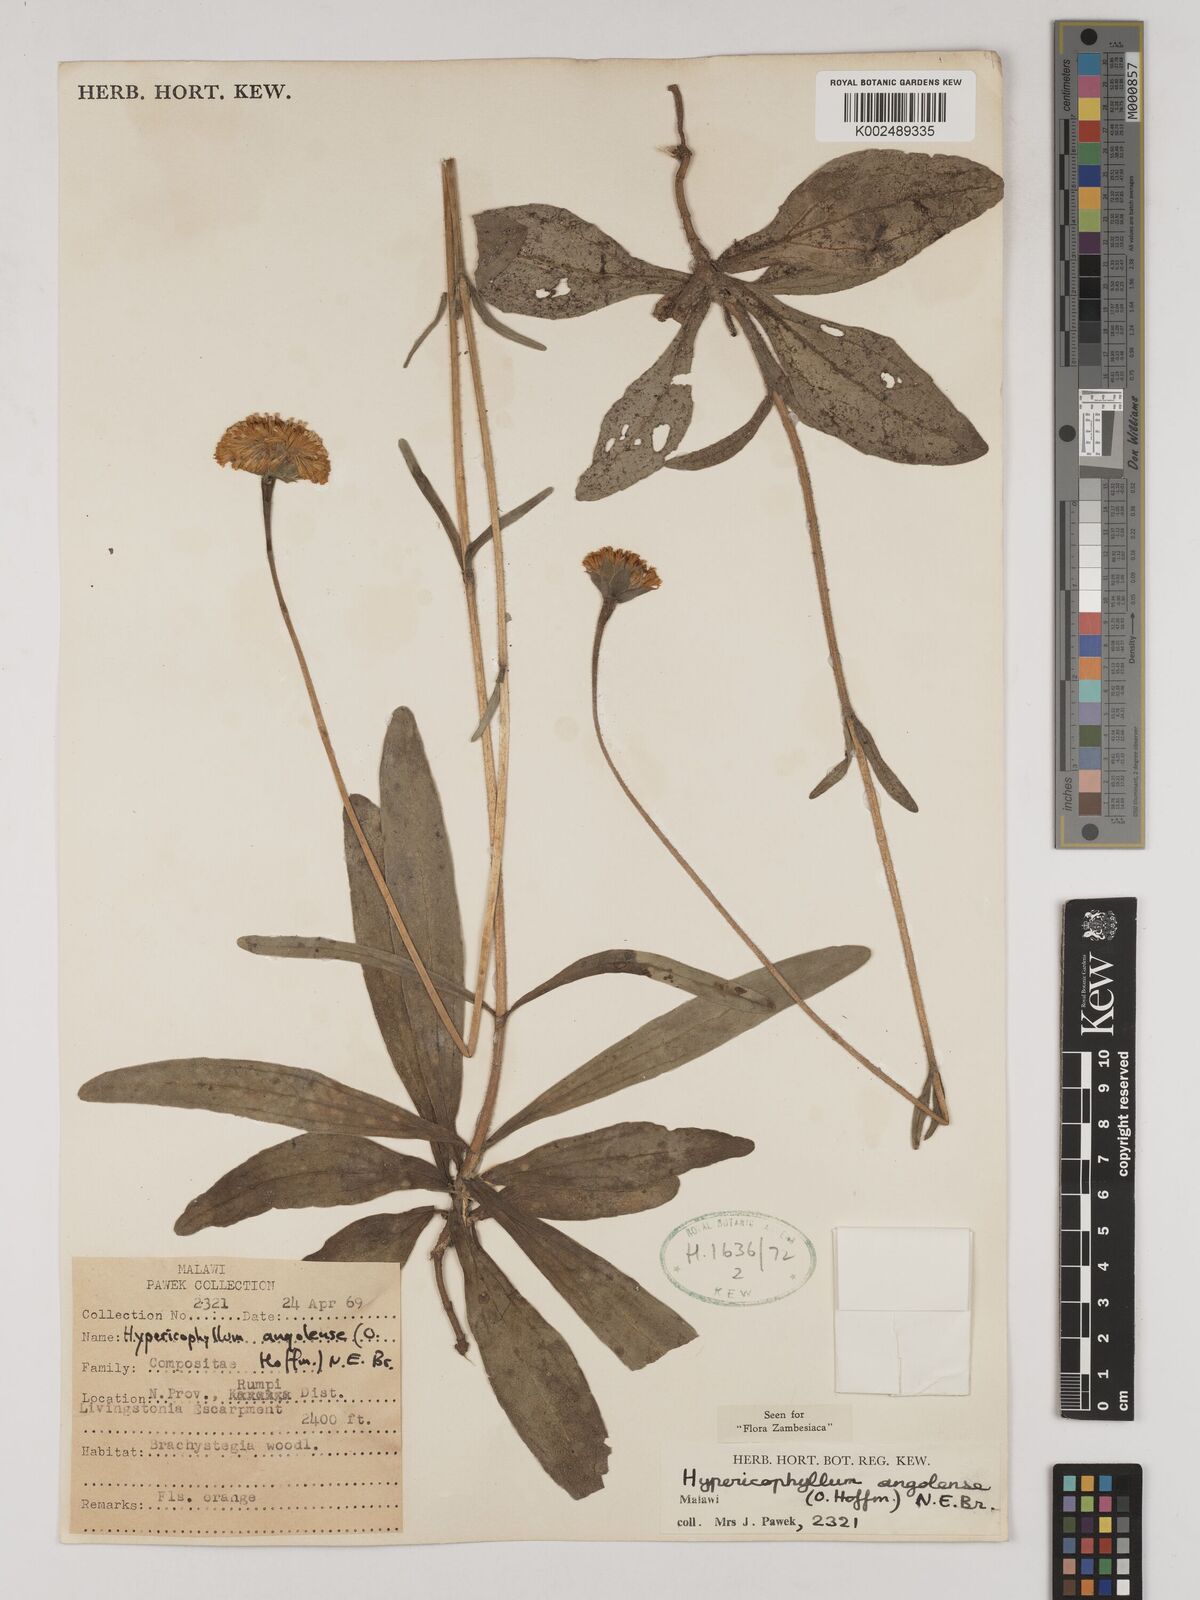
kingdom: Plantae
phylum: Tracheophyta
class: Magnoliopsida
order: Asterales
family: Asteraceae
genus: Hypericophyllum
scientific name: Hypericophyllum angolense
